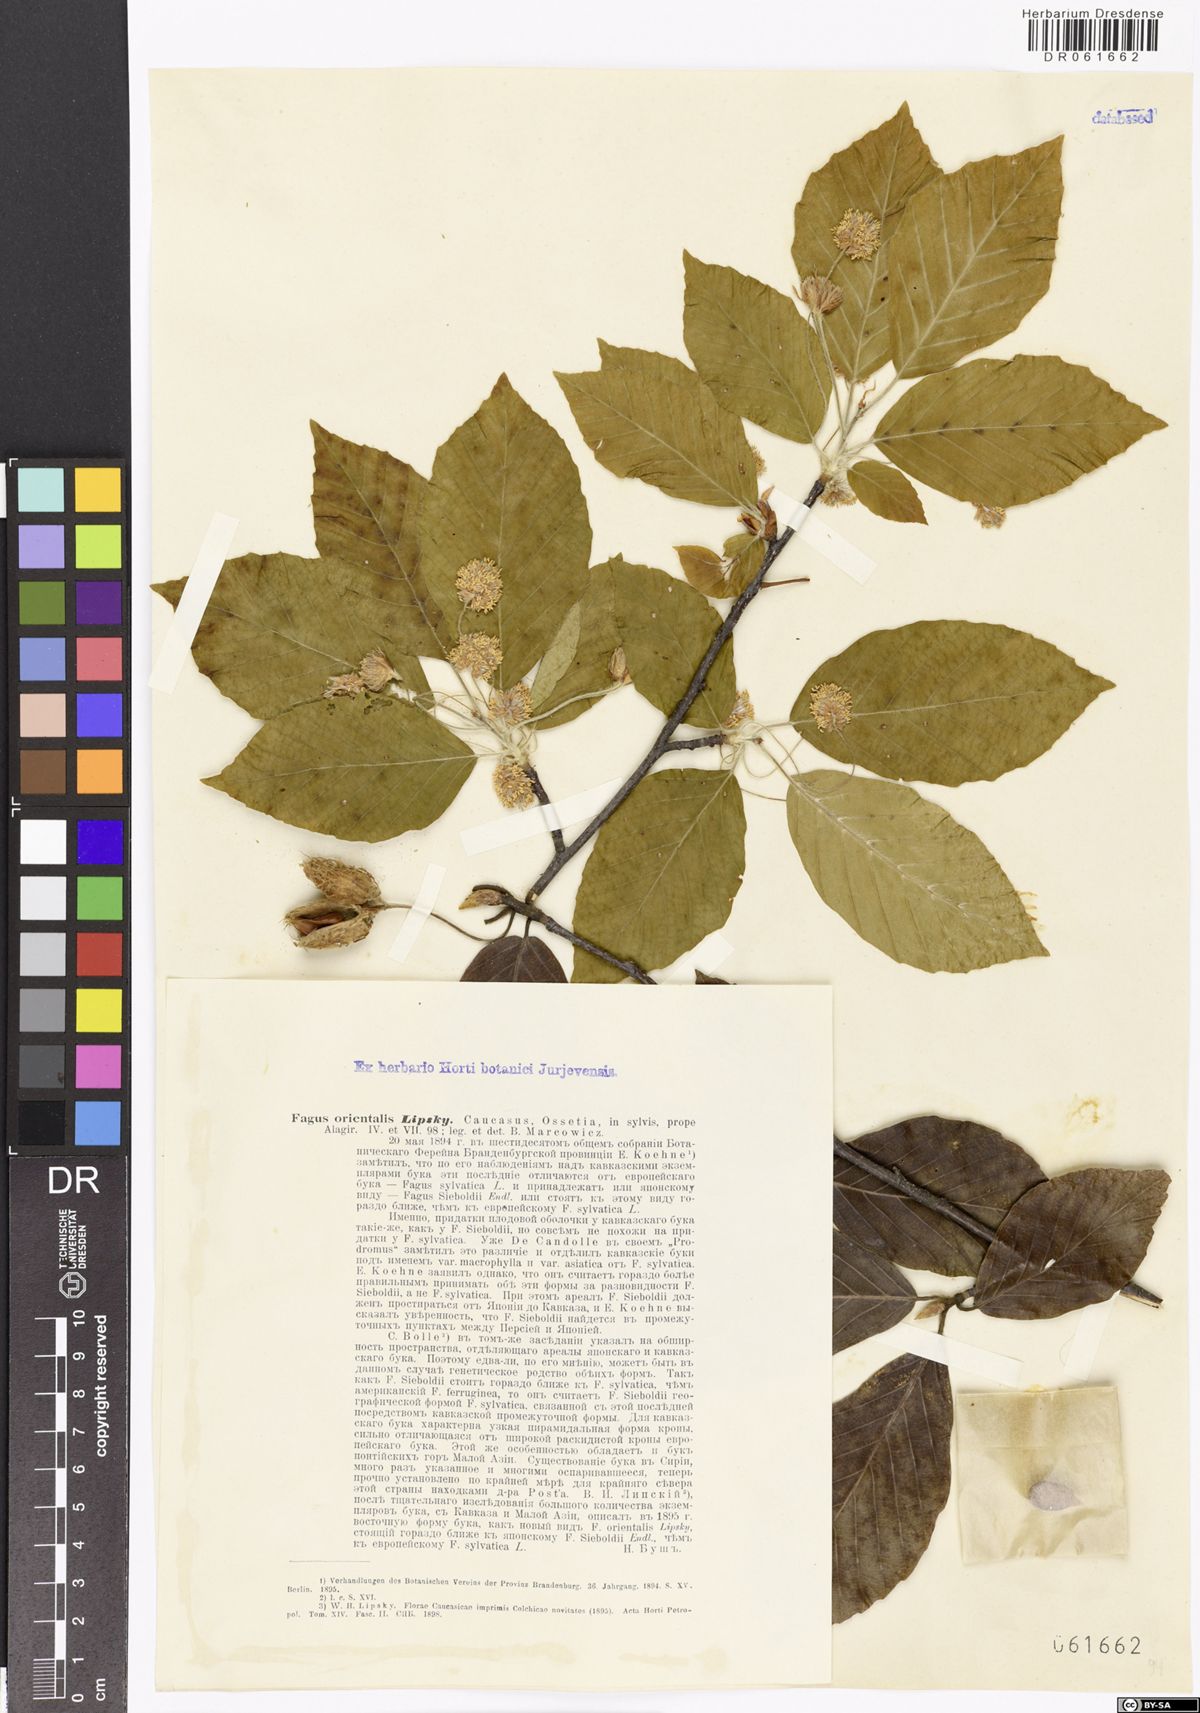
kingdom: Plantae
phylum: Tracheophyta
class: Magnoliopsida
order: Fagales
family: Fagaceae
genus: Fagus
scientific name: Fagus orientalis
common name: Oriental beech
